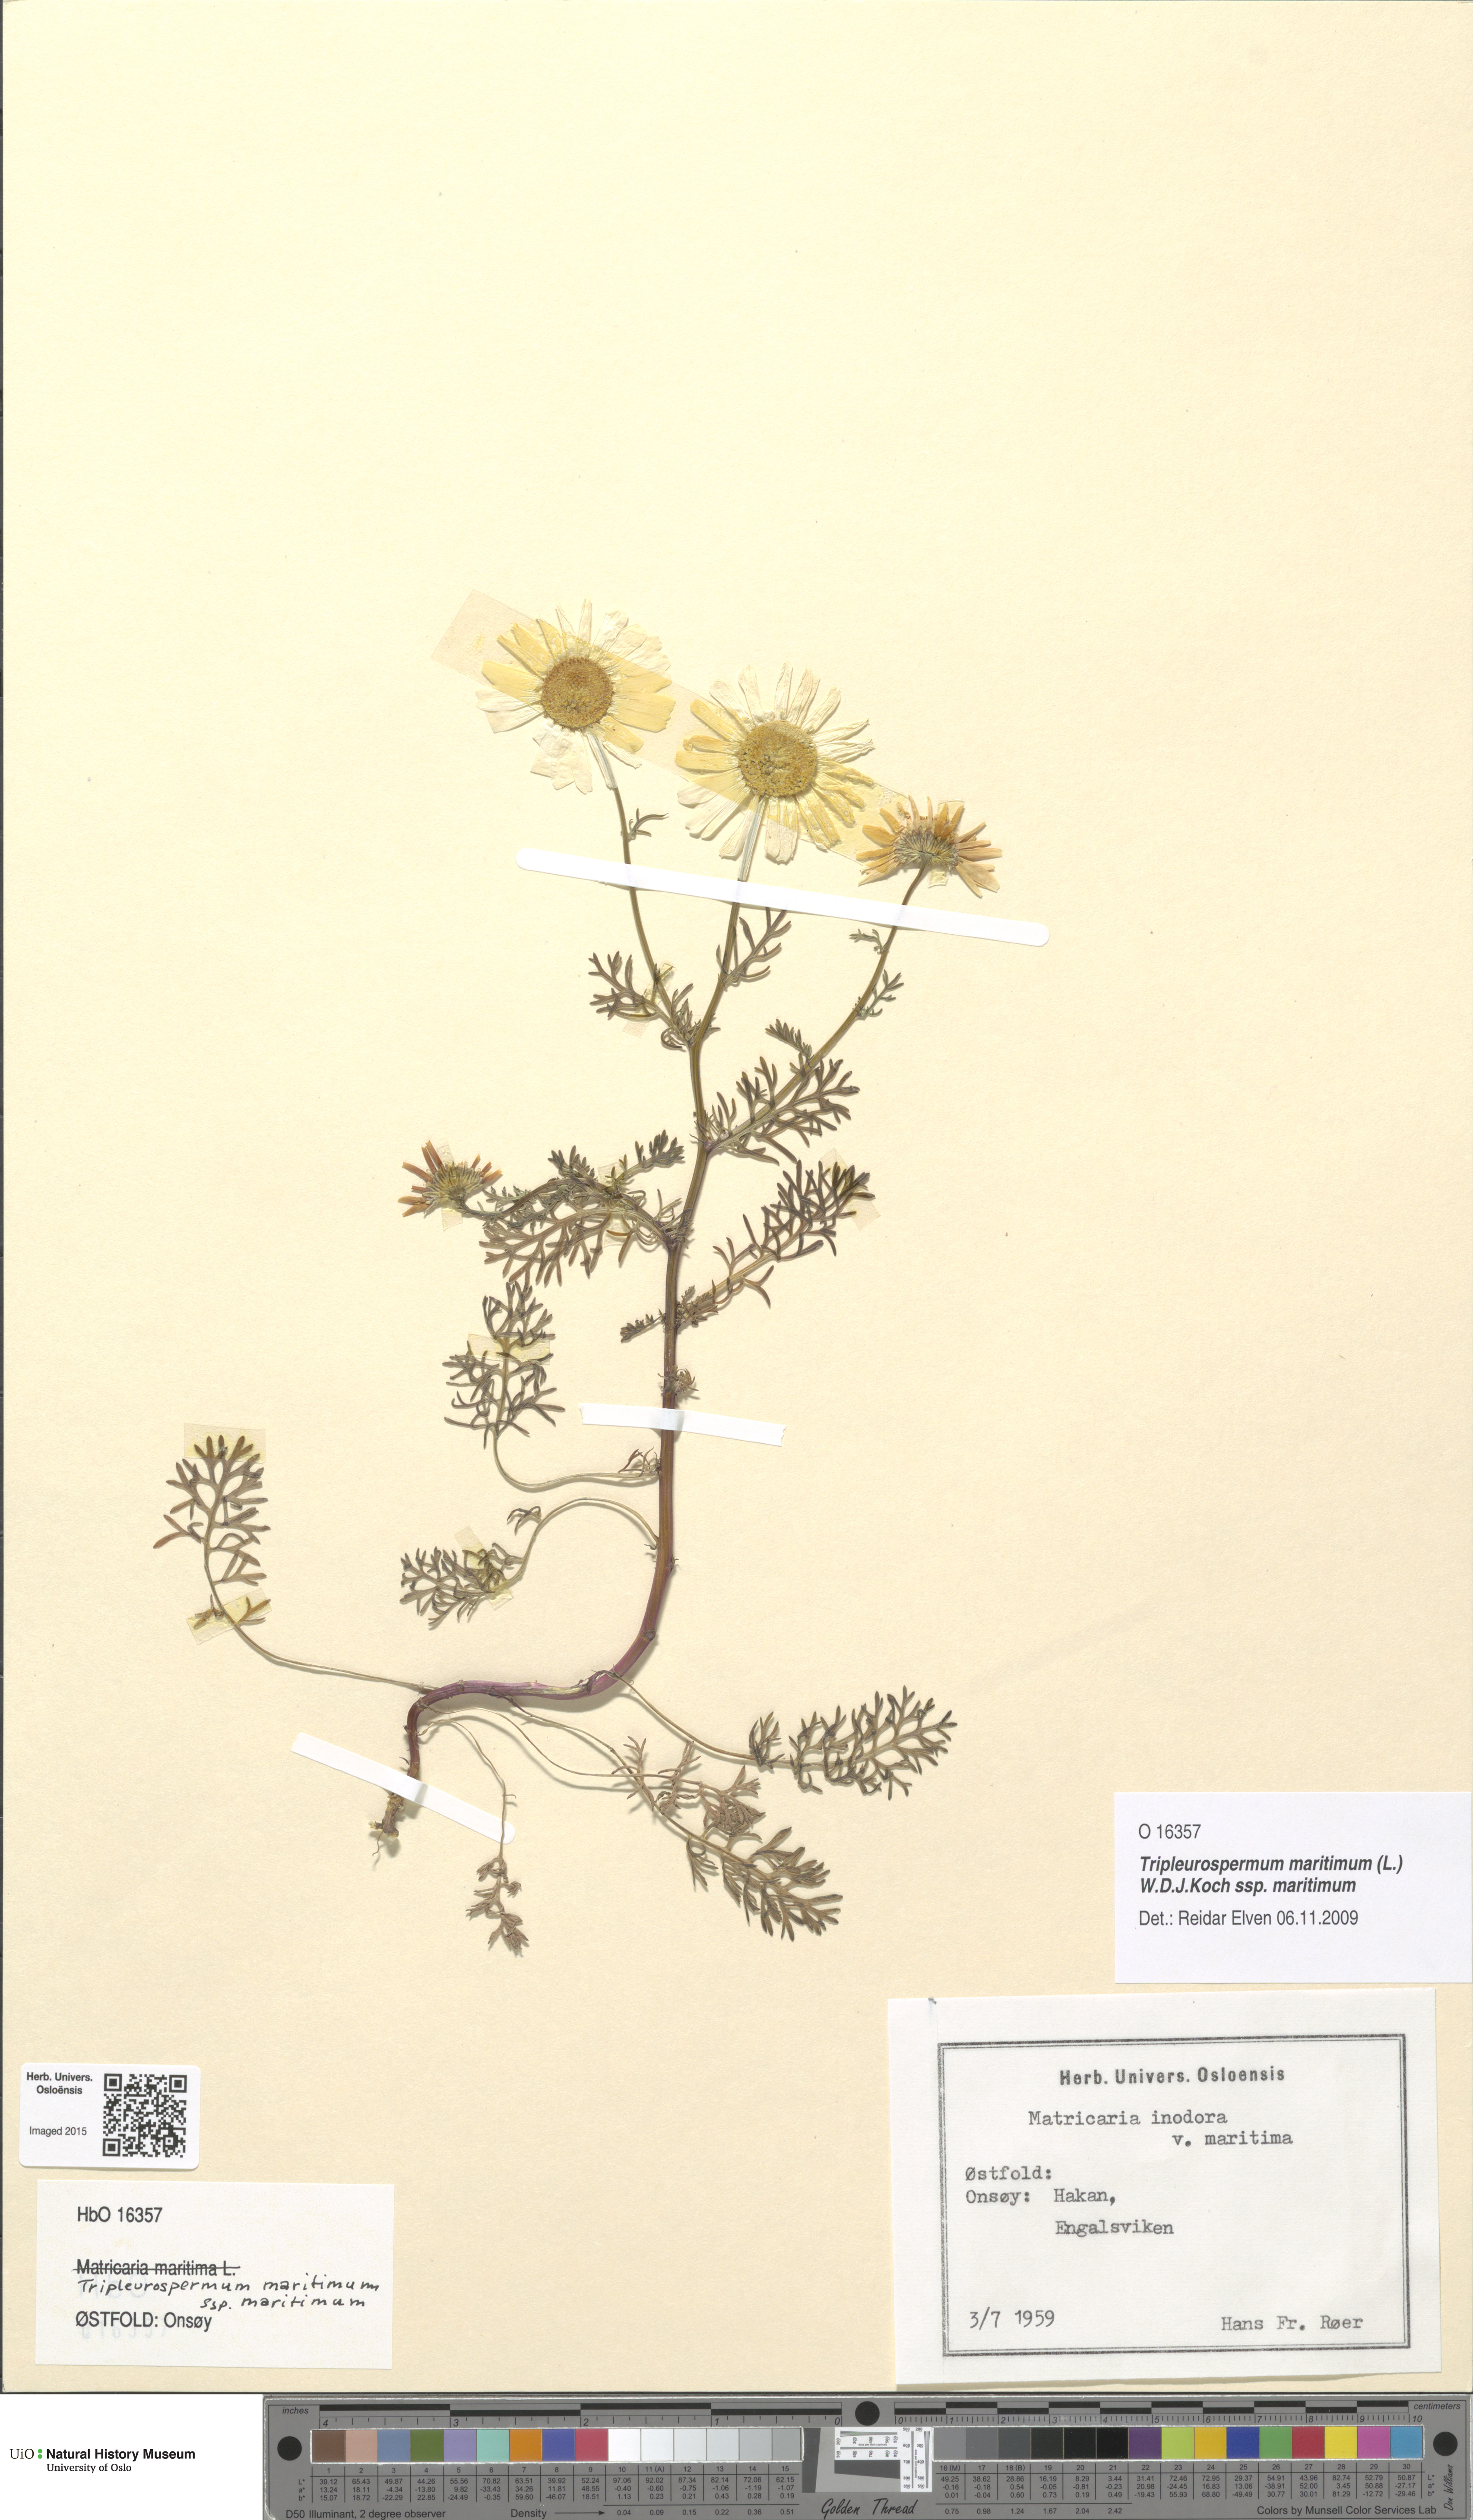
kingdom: Plantae
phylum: Tracheophyta
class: Magnoliopsida
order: Asterales
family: Asteraceae
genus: Tripleurospermum
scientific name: Tripleurospermum maritimum
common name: Sea mayweed
